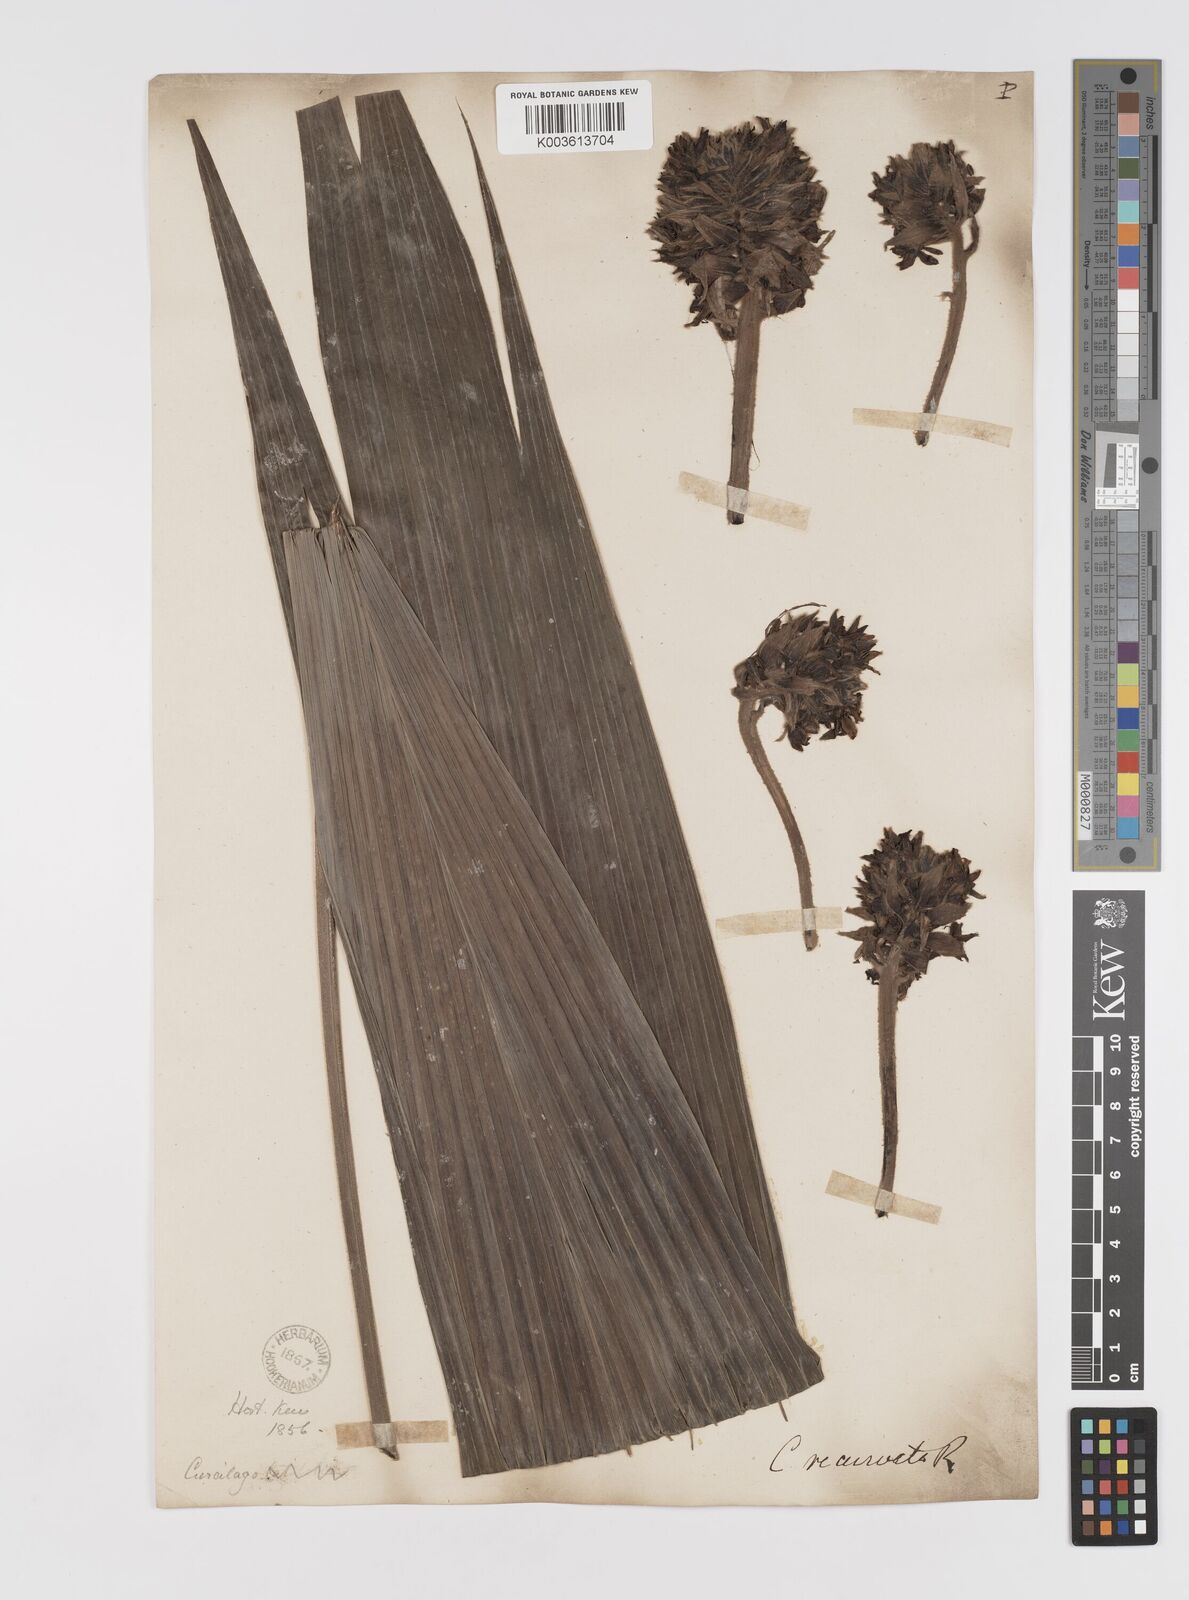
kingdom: Plantae
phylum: Tracheophyta
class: Liliopsida
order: Asparagales
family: Hypoxidaceae
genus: Curculigo
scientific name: Curculigo capitulata
